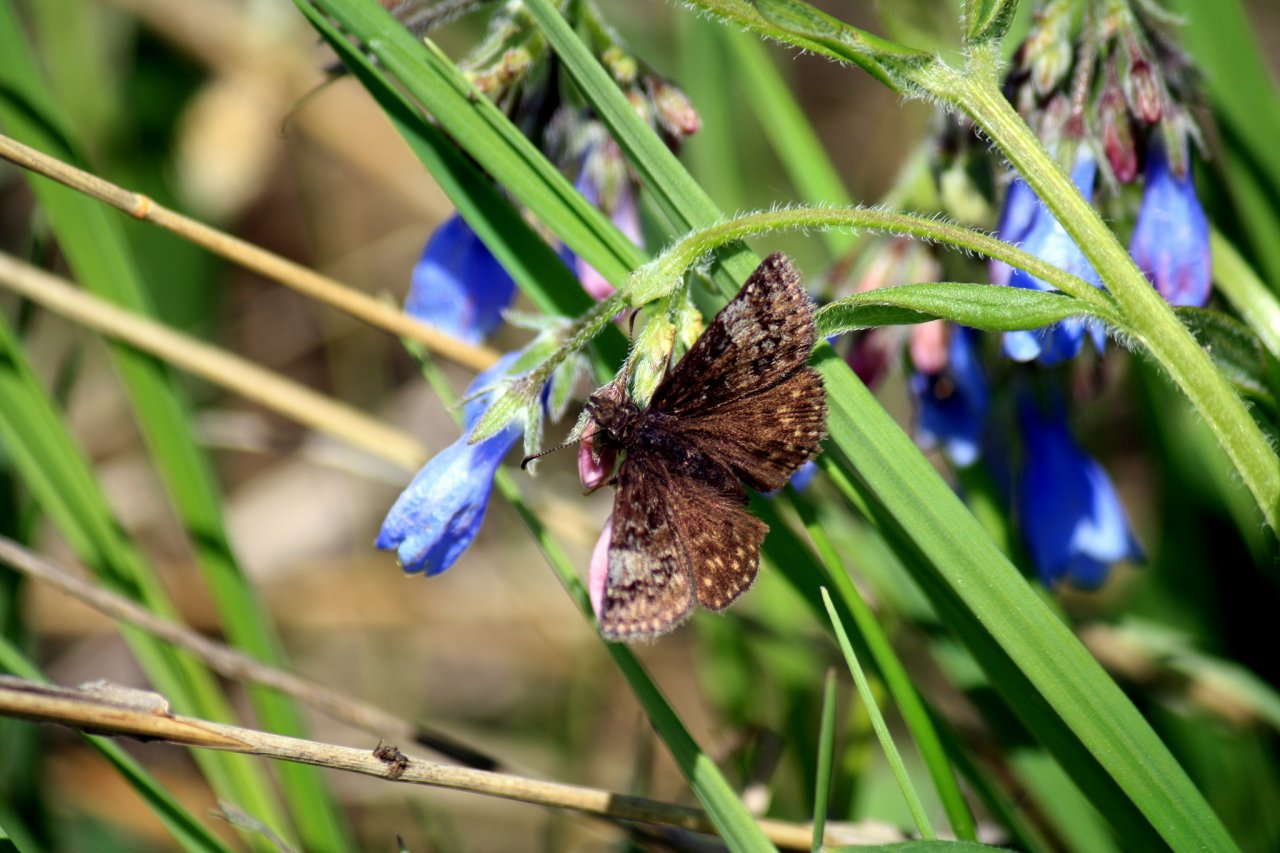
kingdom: Animalia
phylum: Arthropoda
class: Insecta
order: Lepidoptera
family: Hesperiidae
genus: Erynnis
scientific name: Erynnis icelus
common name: Dreamy Duskywing
